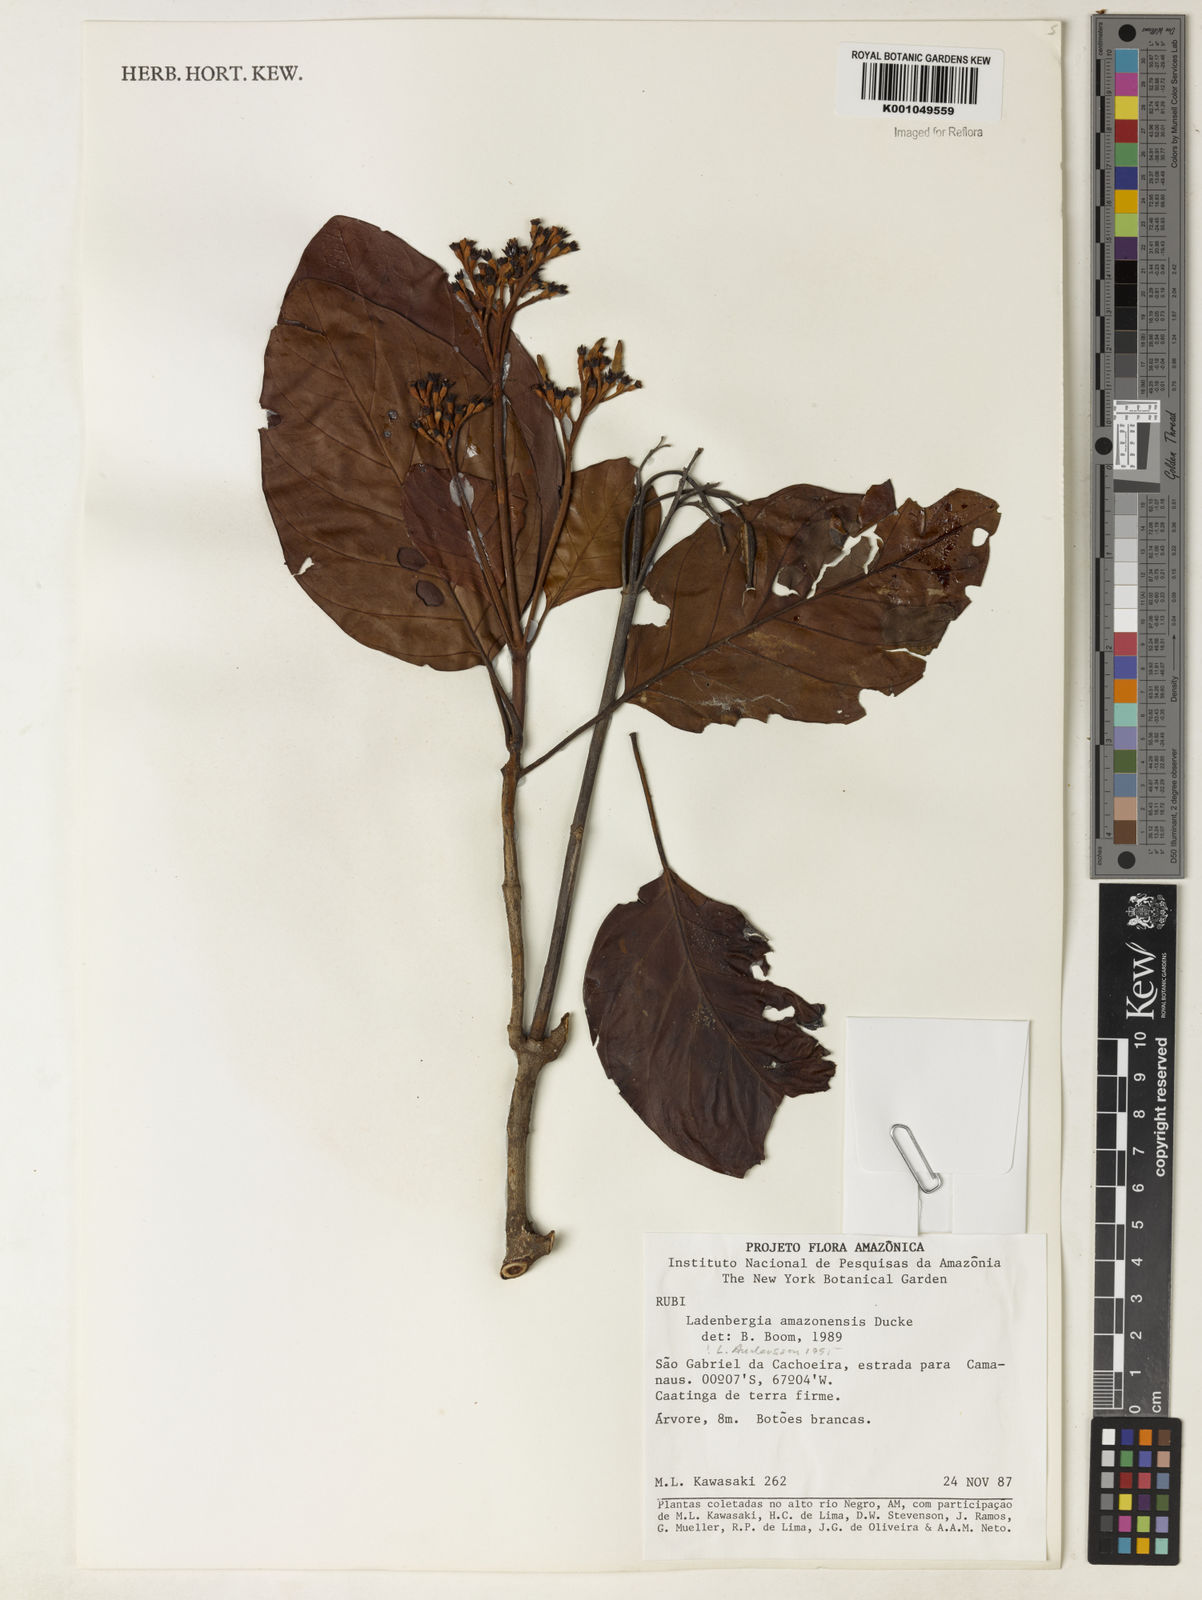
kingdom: Plantae
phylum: Tracheophyta
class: Magnoliopsida
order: Gentianales
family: Rubiaceae
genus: Ladenbergia
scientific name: Ladenbergia amazonensis
